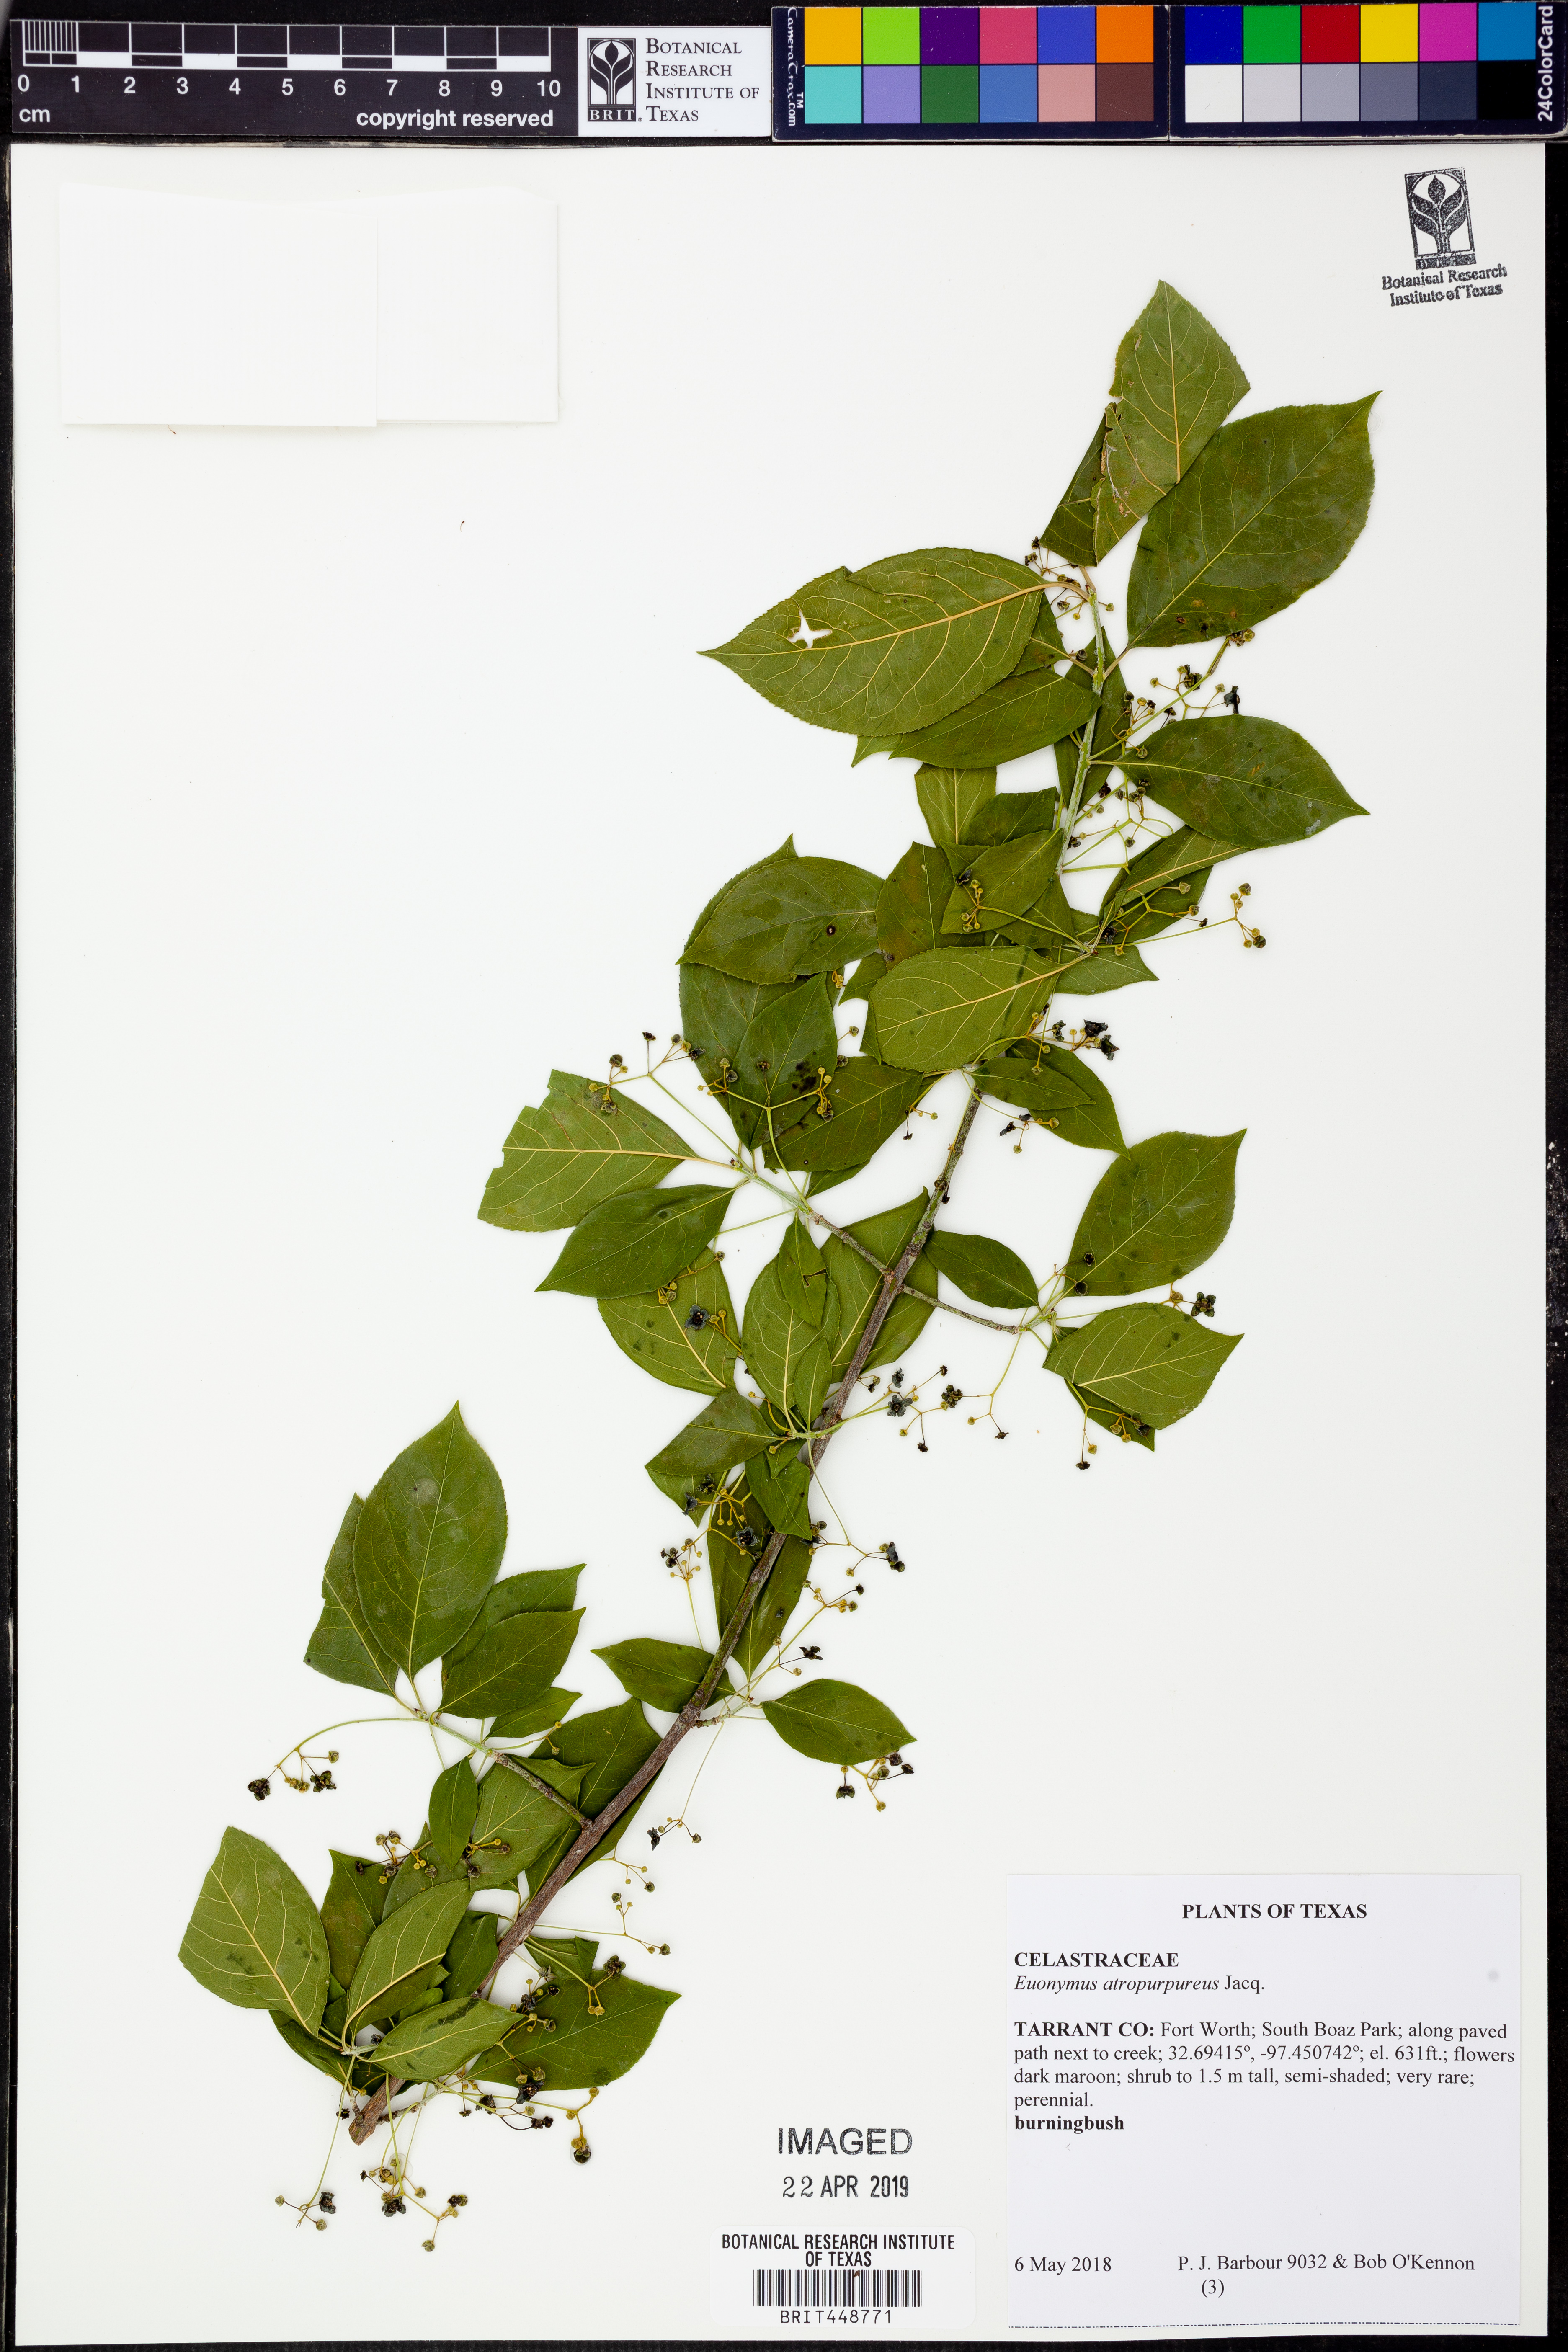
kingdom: Plantae
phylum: Tracheophyta
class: Magnoliopsida
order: Celastrales
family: Celastraceae
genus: Euonymus
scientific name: Euonymus atropurpureus
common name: Eastern wahoo
